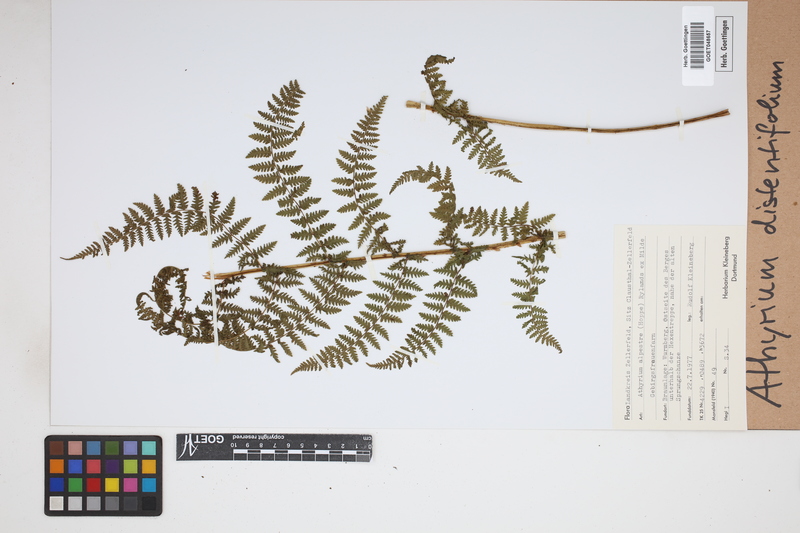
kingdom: Plantae
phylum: Tracheophyta
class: Polypodiopsida
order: Polypodiales
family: Athyriaceae
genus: Pseudathyrium
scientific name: Pseudathyrium alpestre
